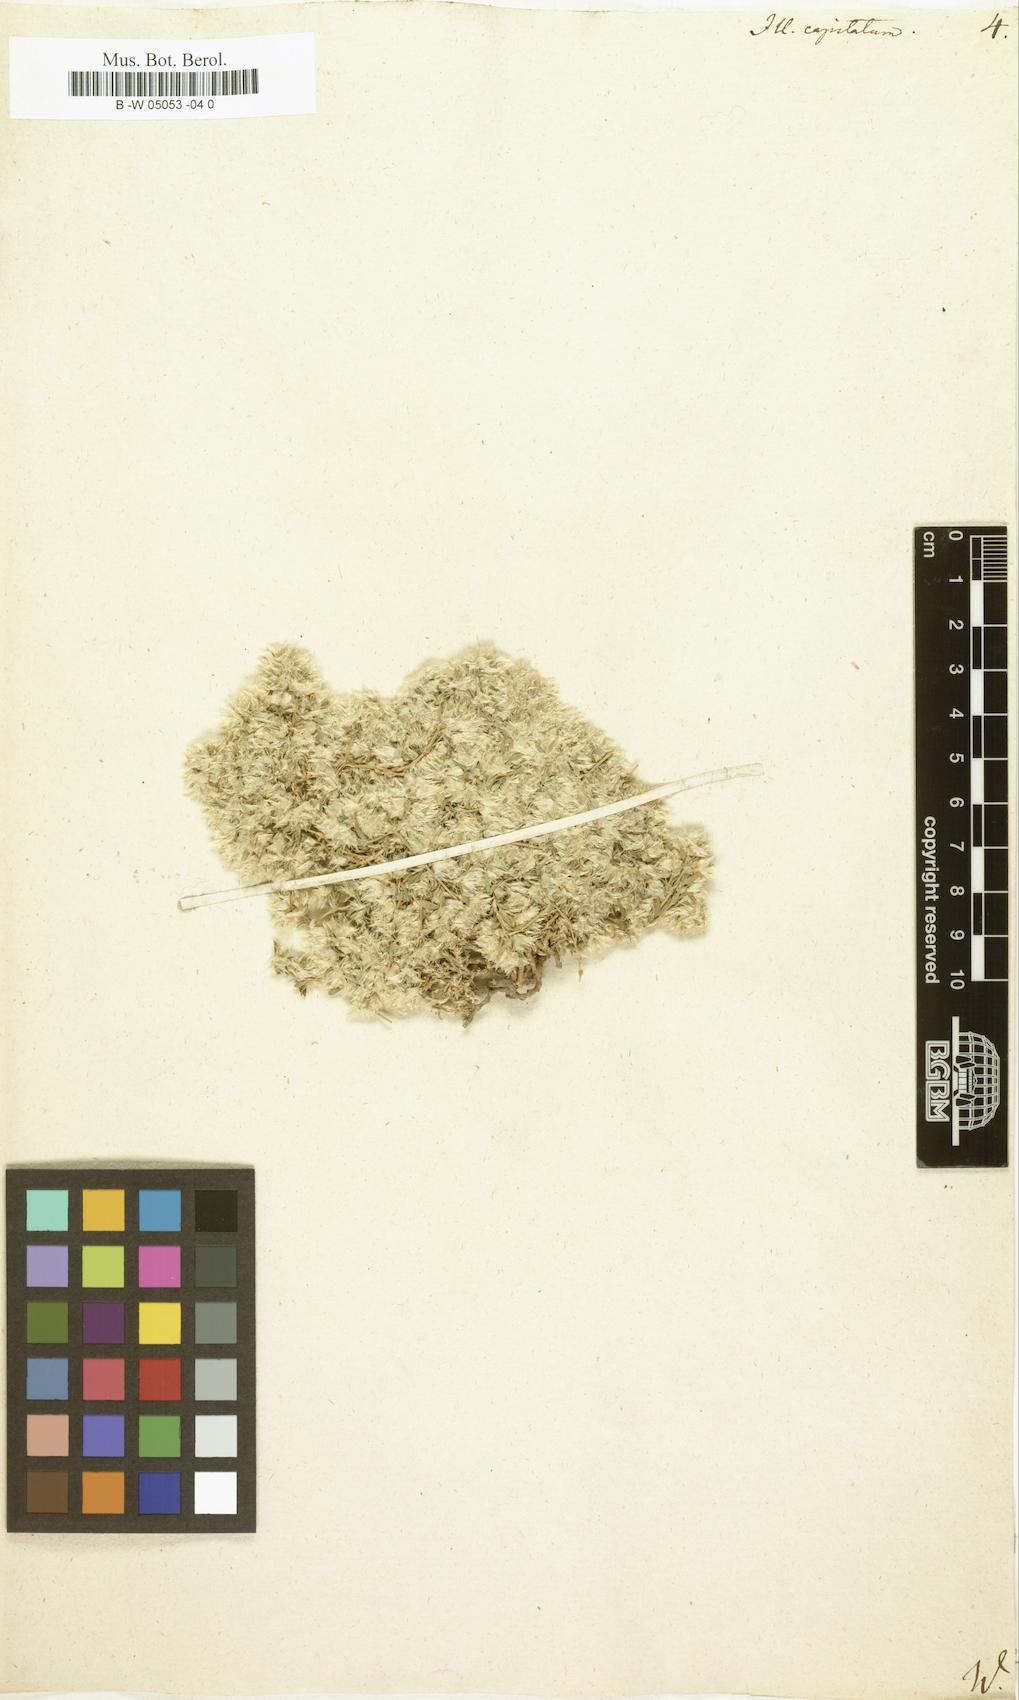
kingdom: Plantae
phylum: Tracheophyta
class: Magnoliopsida
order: Caryophyllales
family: Caryophyllaceae
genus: Paronychia
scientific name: Paronychia capitata
